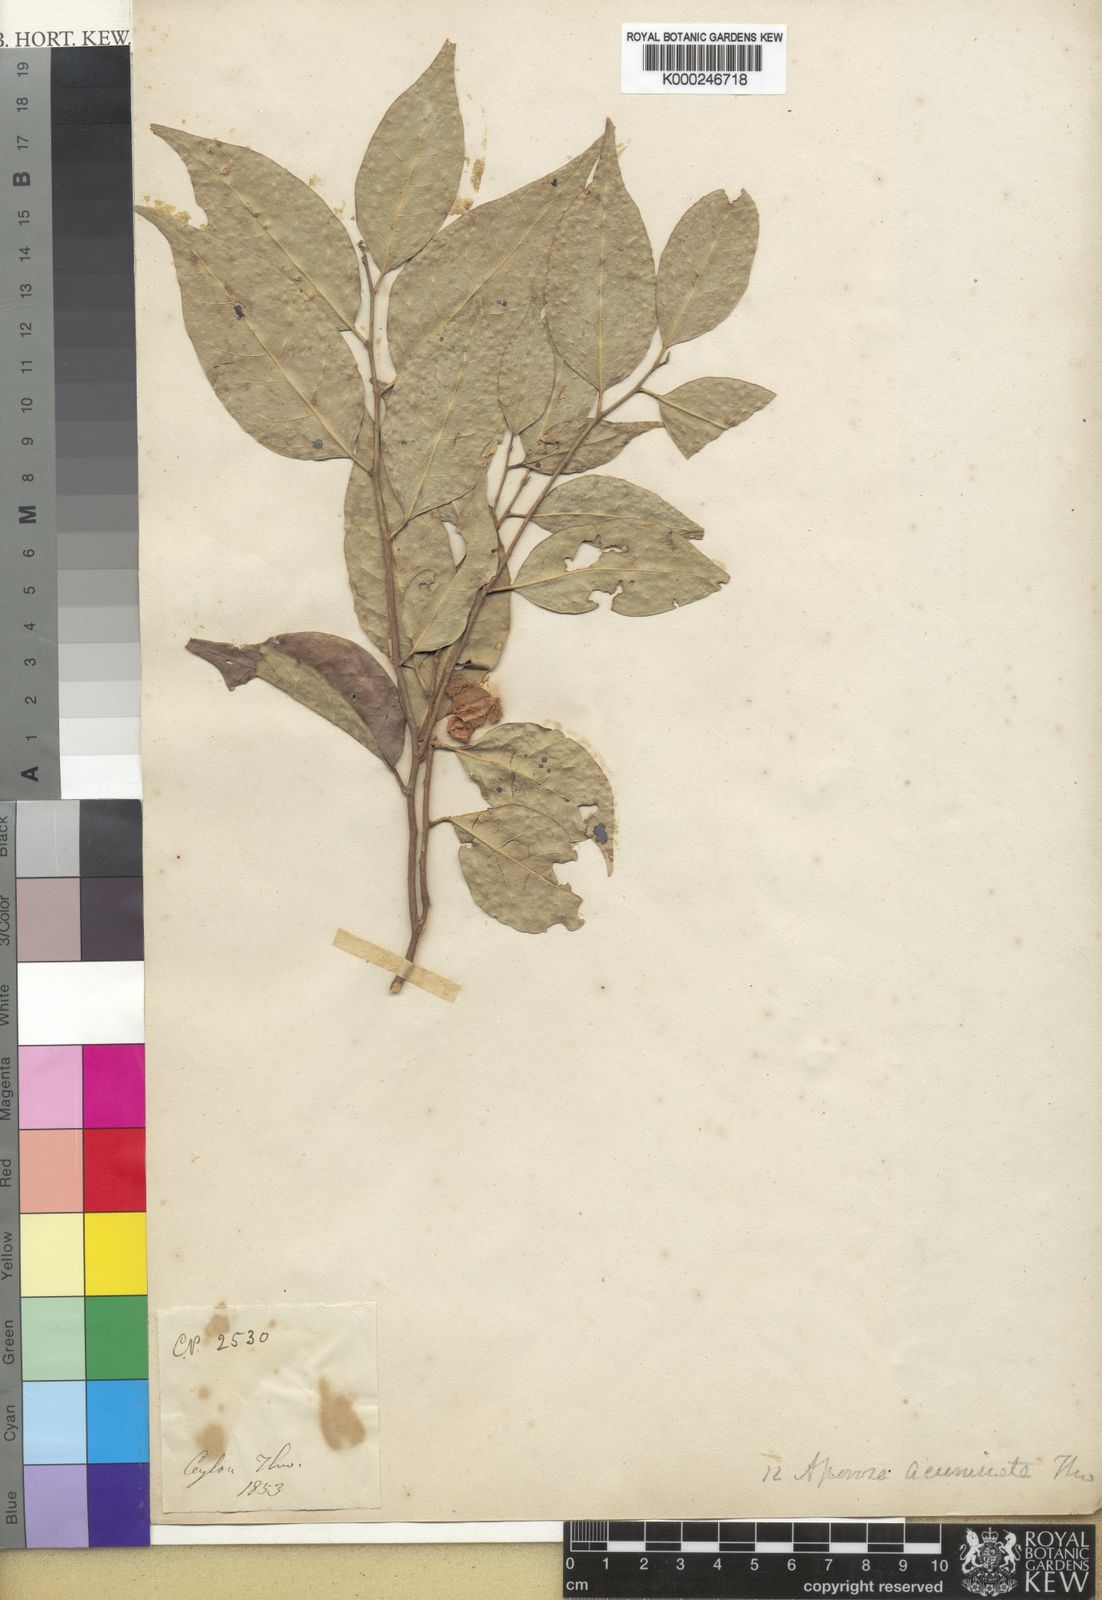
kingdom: Plantae
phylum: Tracheophyta
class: Magnoliopsida
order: Malpighiales
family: Phyllanthaceae
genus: Aporosa
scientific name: Aporosa acuminata
